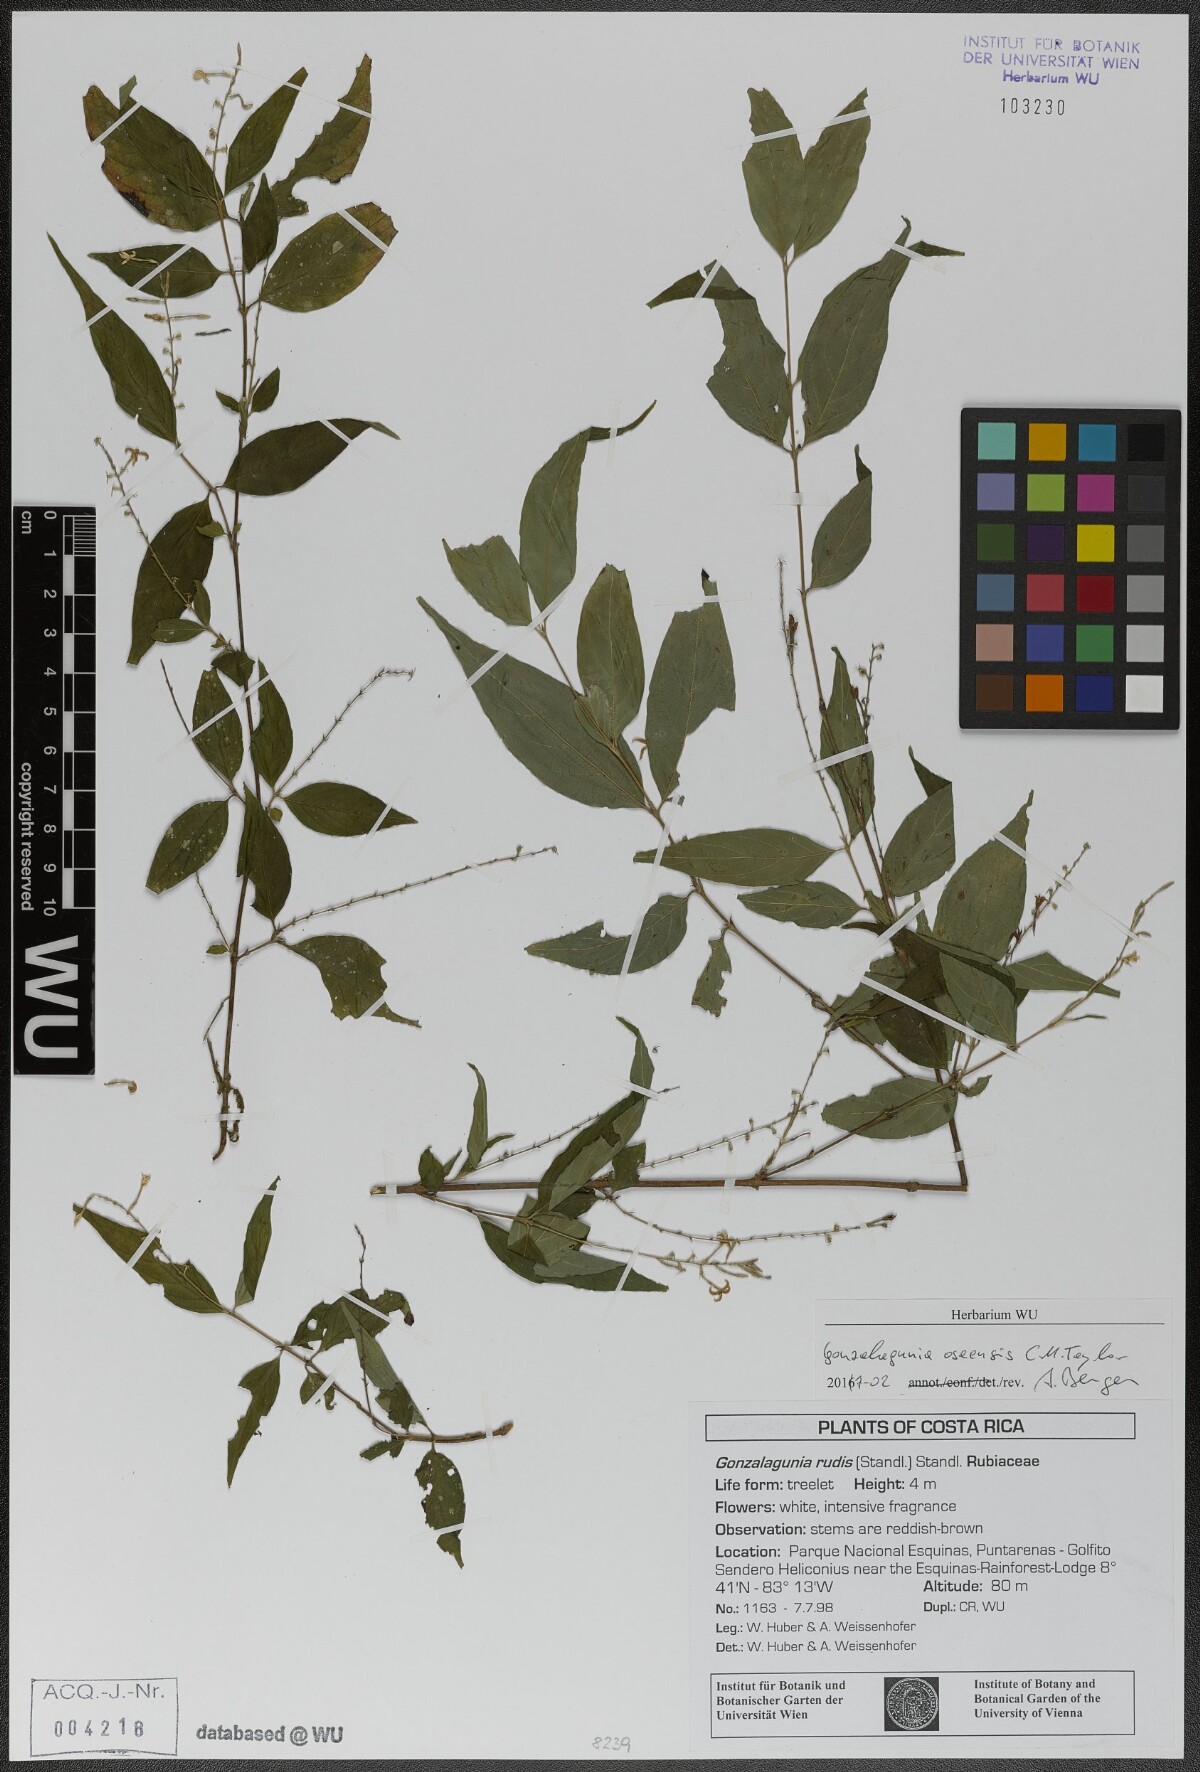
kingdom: Plantae
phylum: Tracheophyta
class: Magnoliopsida
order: Gentianales
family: Rubiaceae
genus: Gonzalagunia
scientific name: Gonzalagunia osaensis
